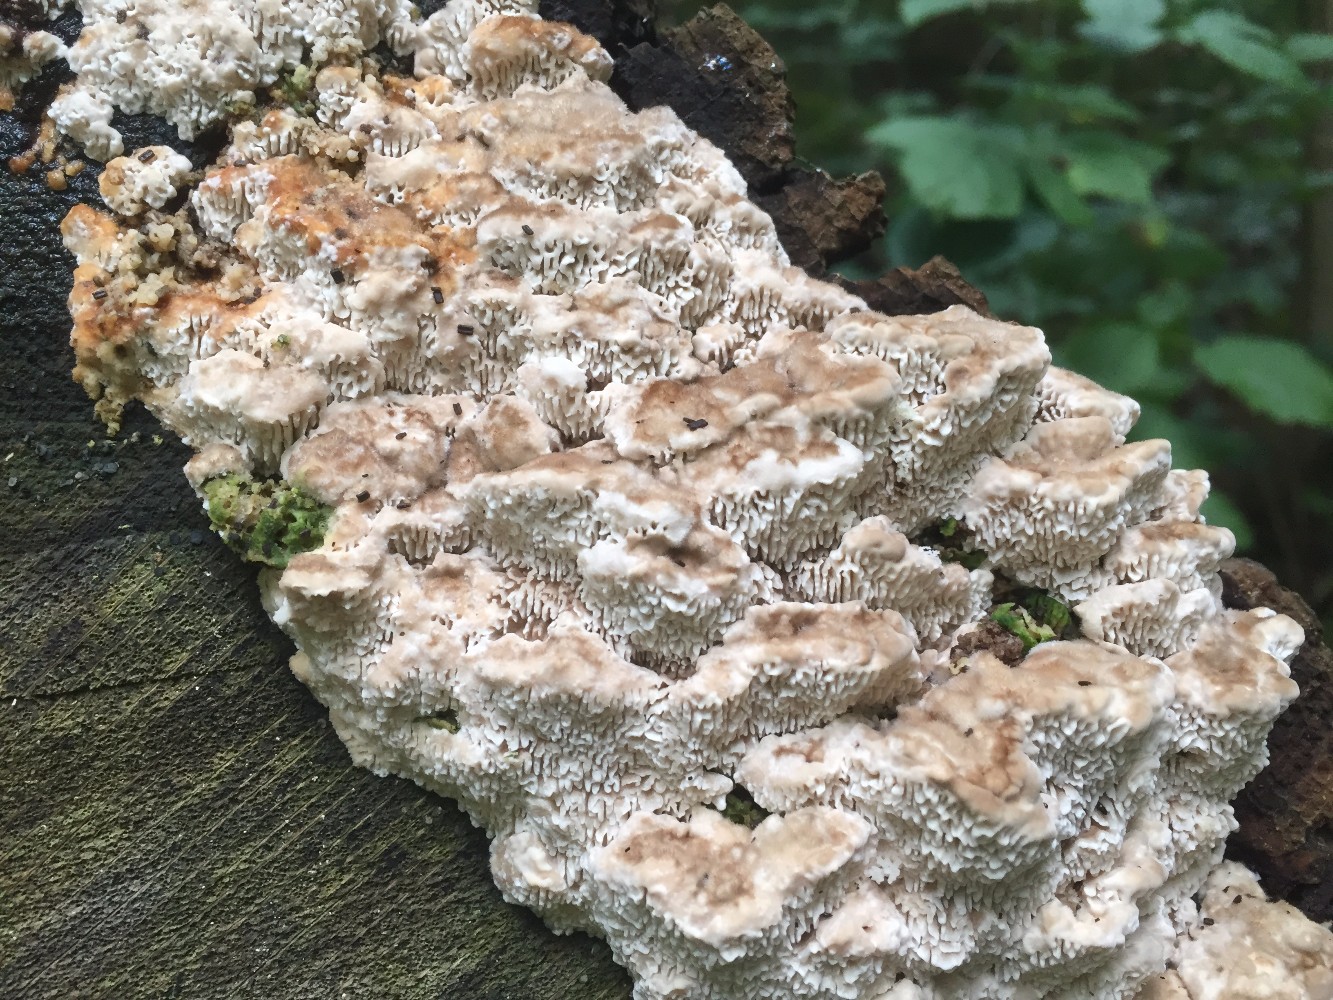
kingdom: Fungi
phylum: Basidiomycota
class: Agaricomycetes
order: Polyporales
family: Fomitopsidaceae
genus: Daedalea
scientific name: Daedalea quercina
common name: ege-labyrintsvamp
